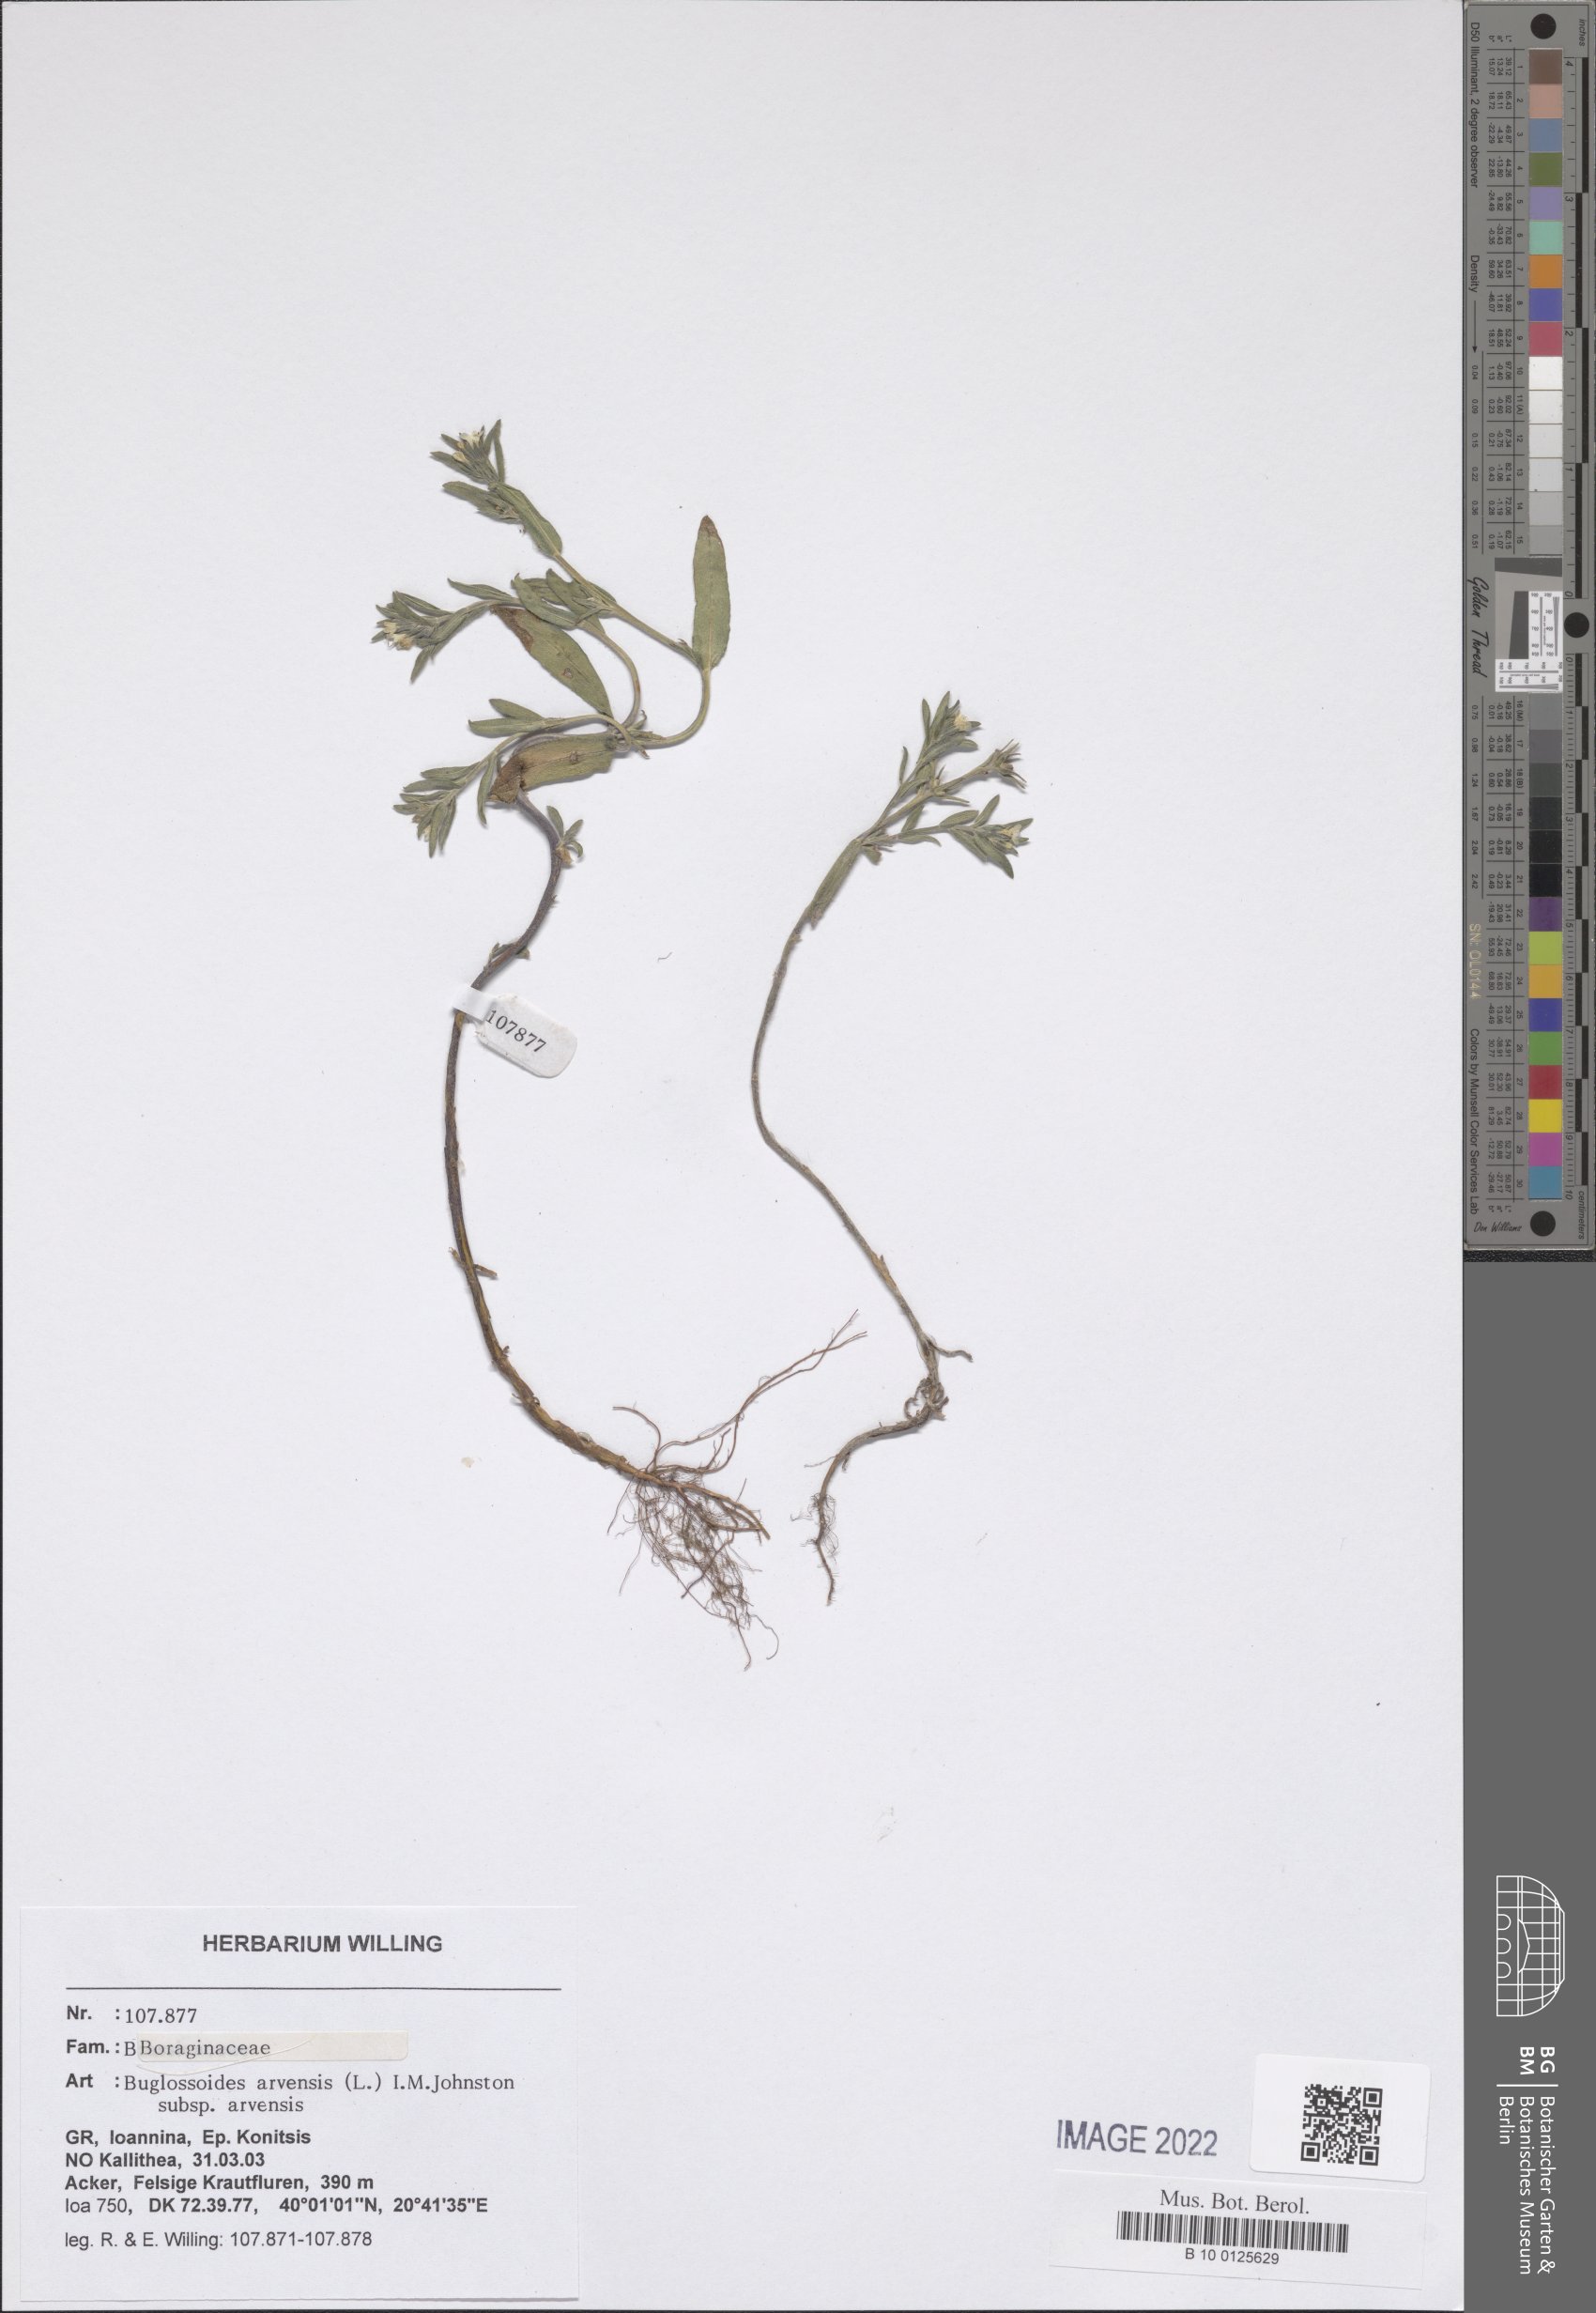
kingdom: Plantae
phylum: Tracheophyta
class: Magnoliopsida
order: Boraginales
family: Boraginaceae
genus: Buglossoides
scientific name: Buglossoides arvensis
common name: Corn gromwell
